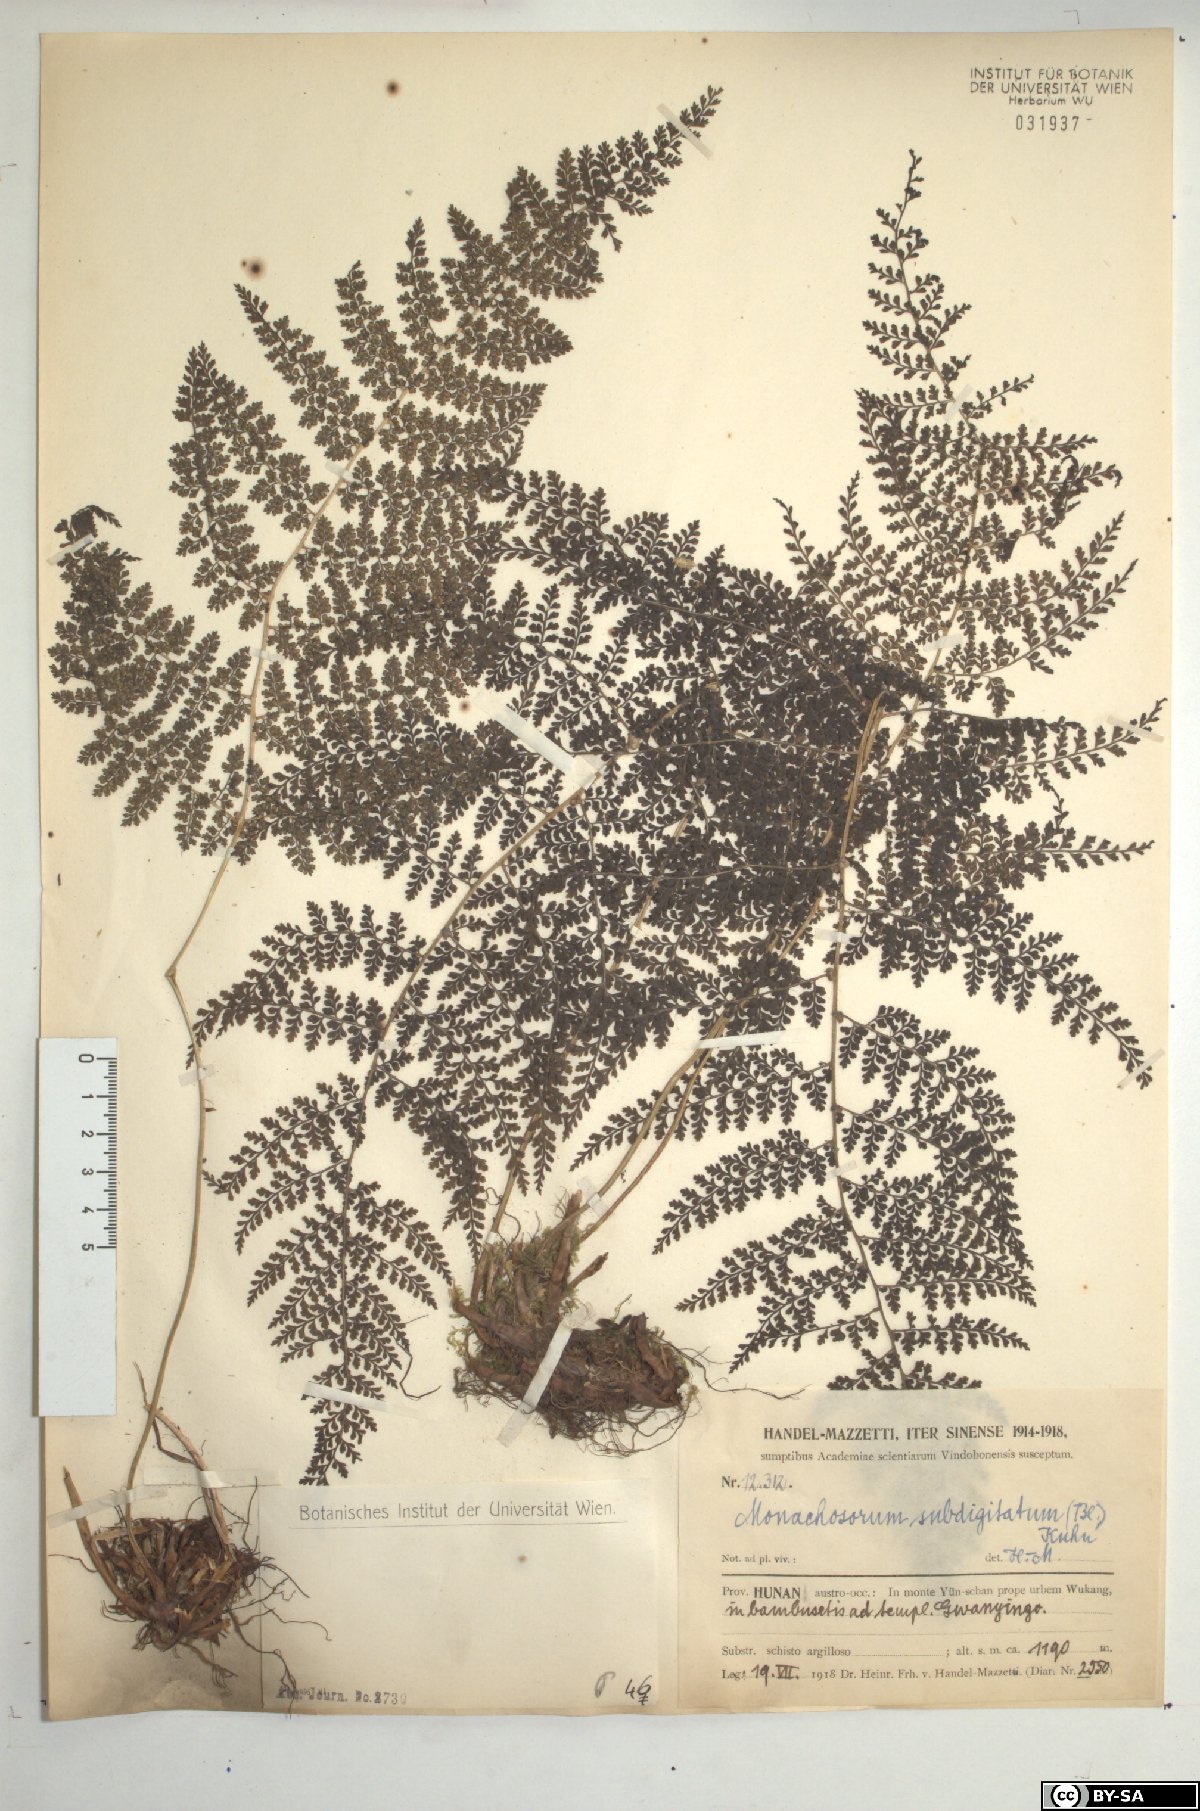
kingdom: Plantae
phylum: Tracheophyta
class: Polypodiopsida
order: Polypodiales
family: Dennstaedtiaceae
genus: Monachosorum
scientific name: Monachosorum subdigitatum
